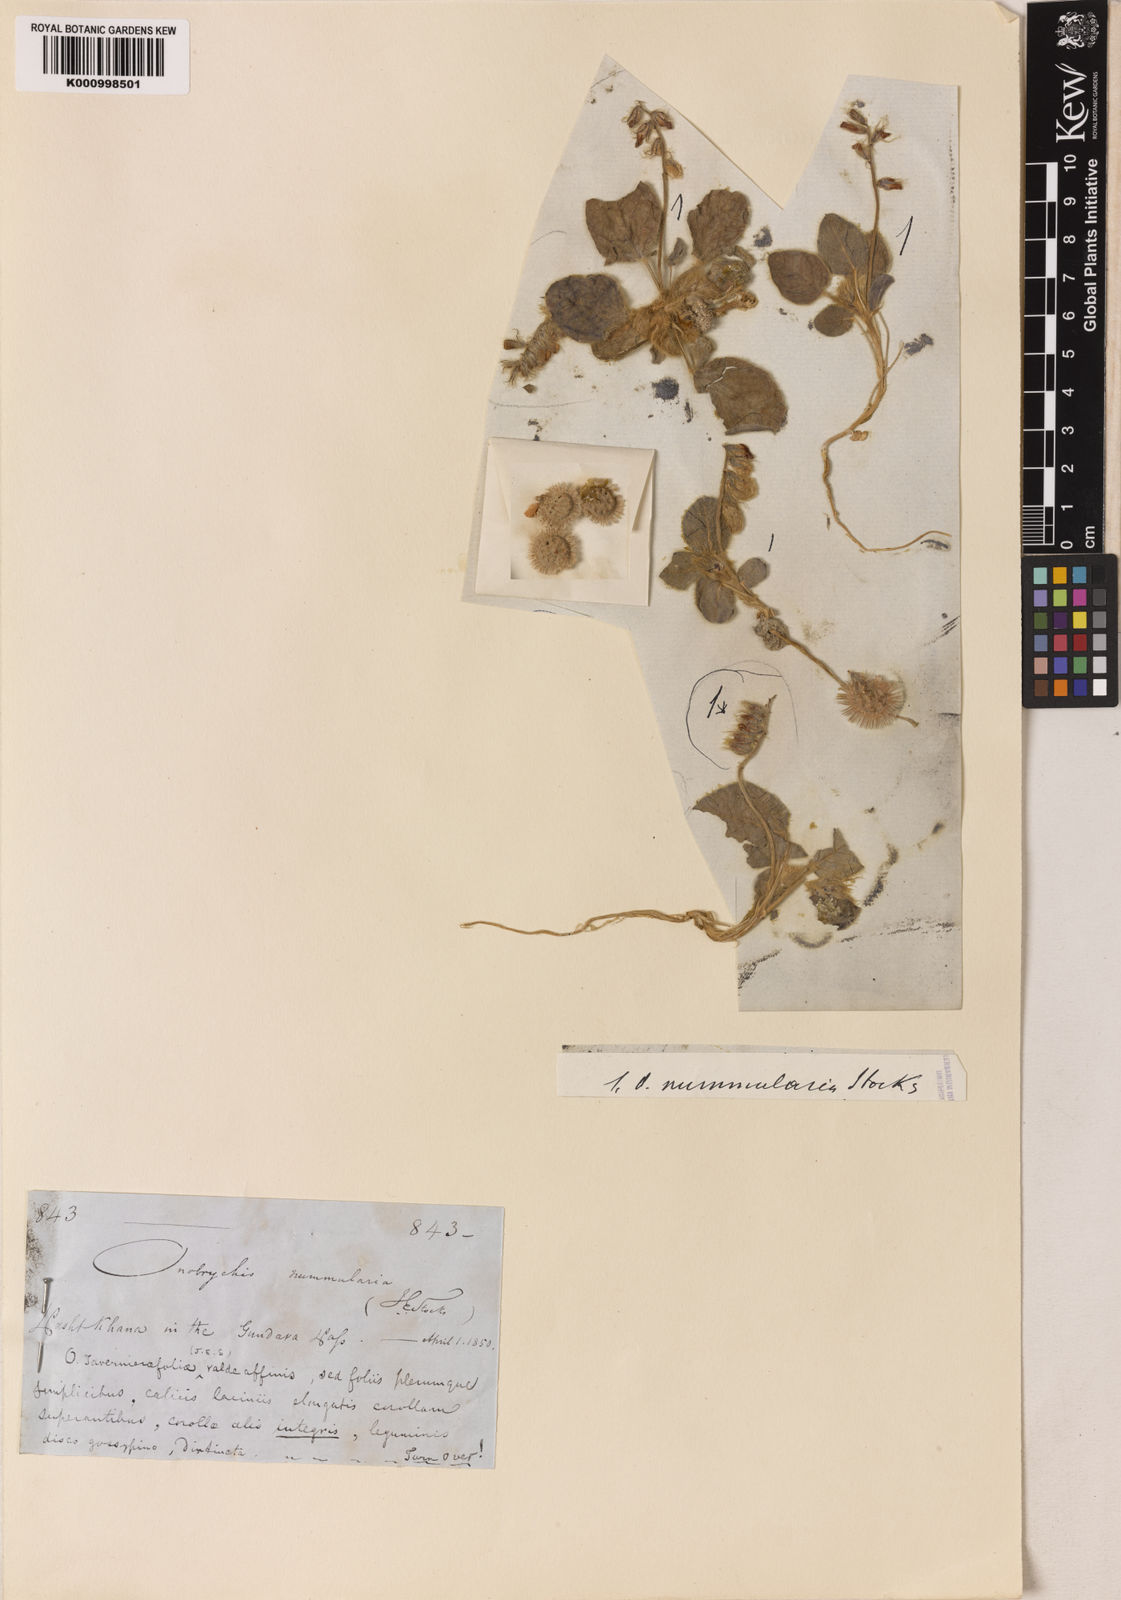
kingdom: Plantae
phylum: Tracheophyta
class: Magnoliopsida
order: Fabales
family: Fabaceae
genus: Onobrychis
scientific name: Onobrychis nummularia
